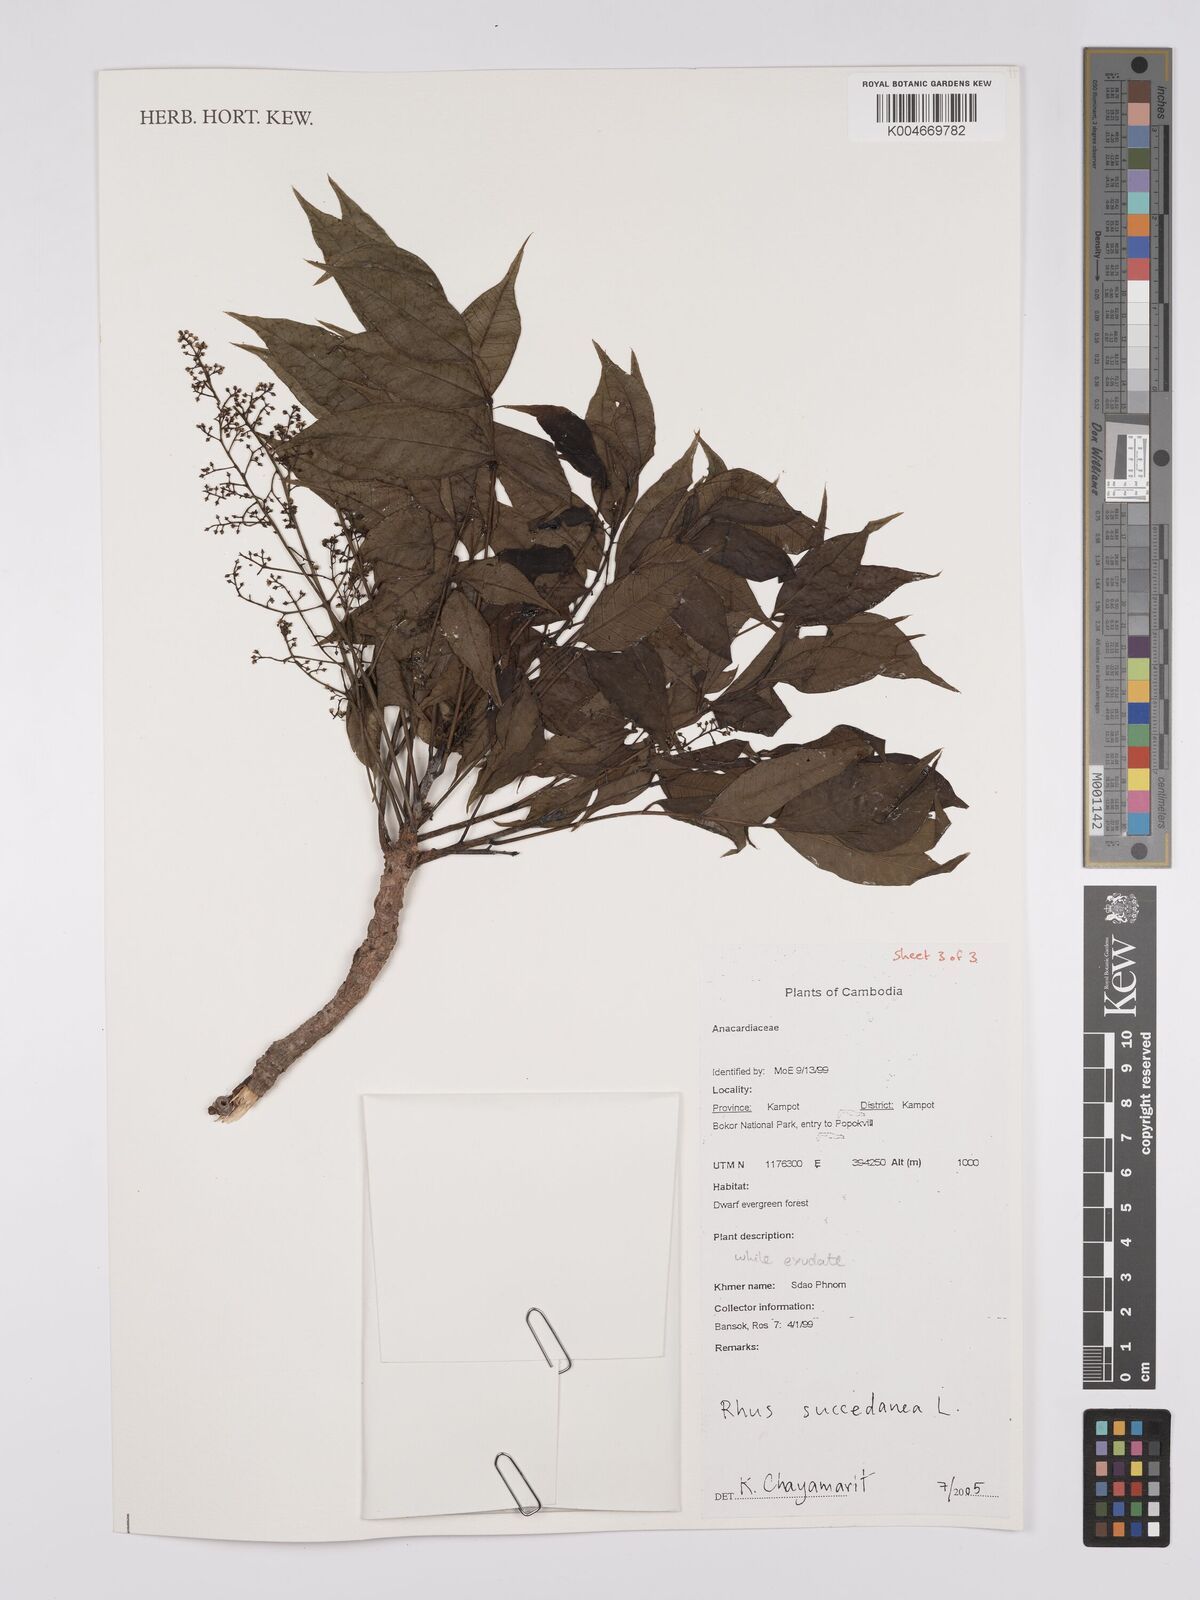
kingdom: Plantae
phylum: Tracheophyta
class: Magnoliopsida
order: Sapindales
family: Anacardiaceae
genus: Toxicodendron
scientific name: Toxicodendron succedaneum
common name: Wax tree
